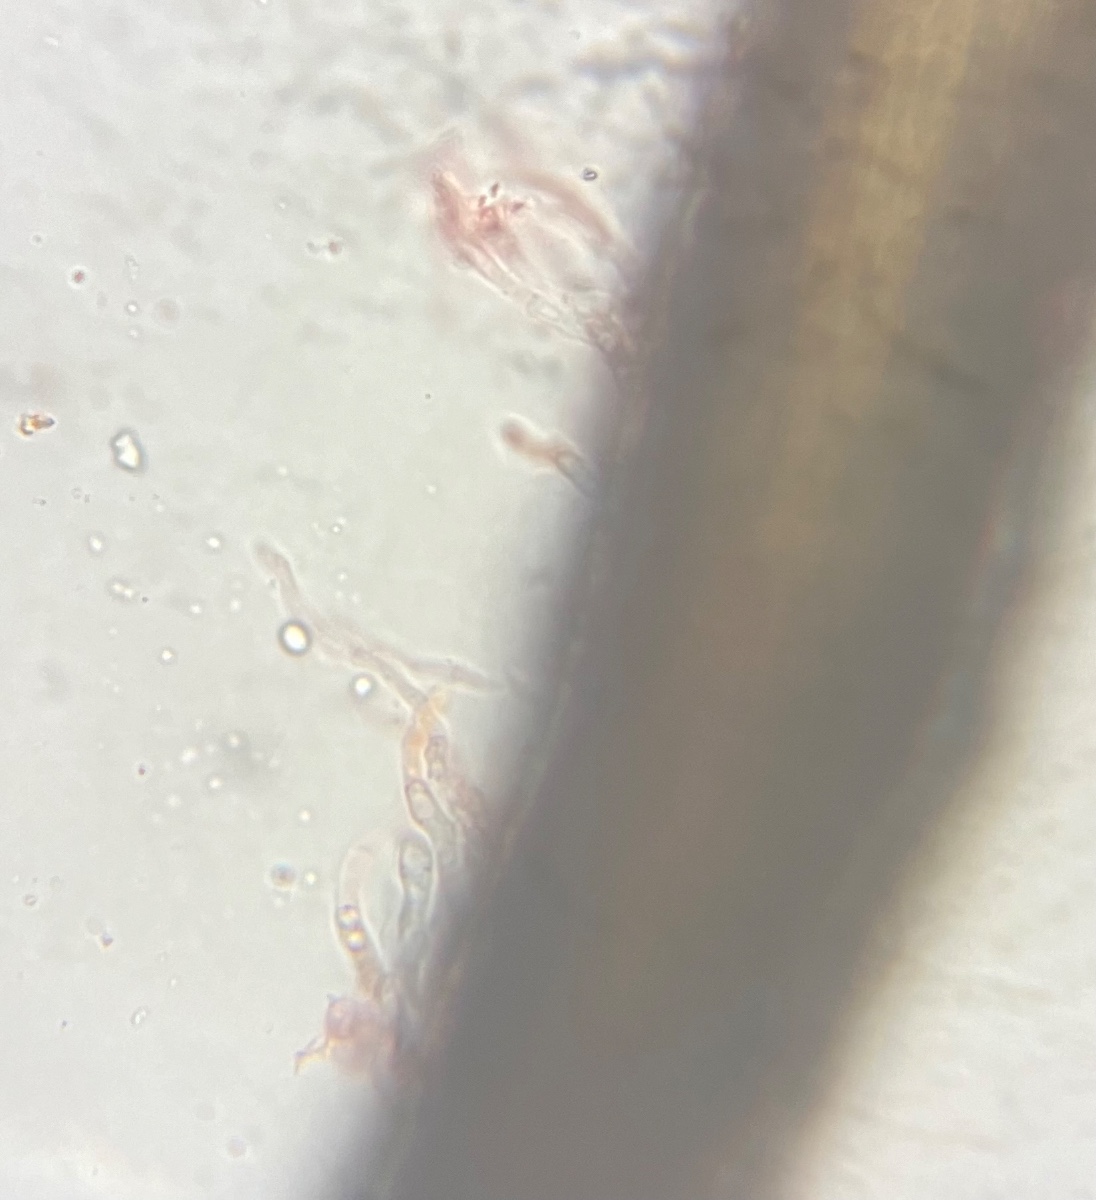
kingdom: Fungi
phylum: Ascomycota
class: Sordariomycetes
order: Diaporthales
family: Gnomoniaceae
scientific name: Gnomoniaceae
